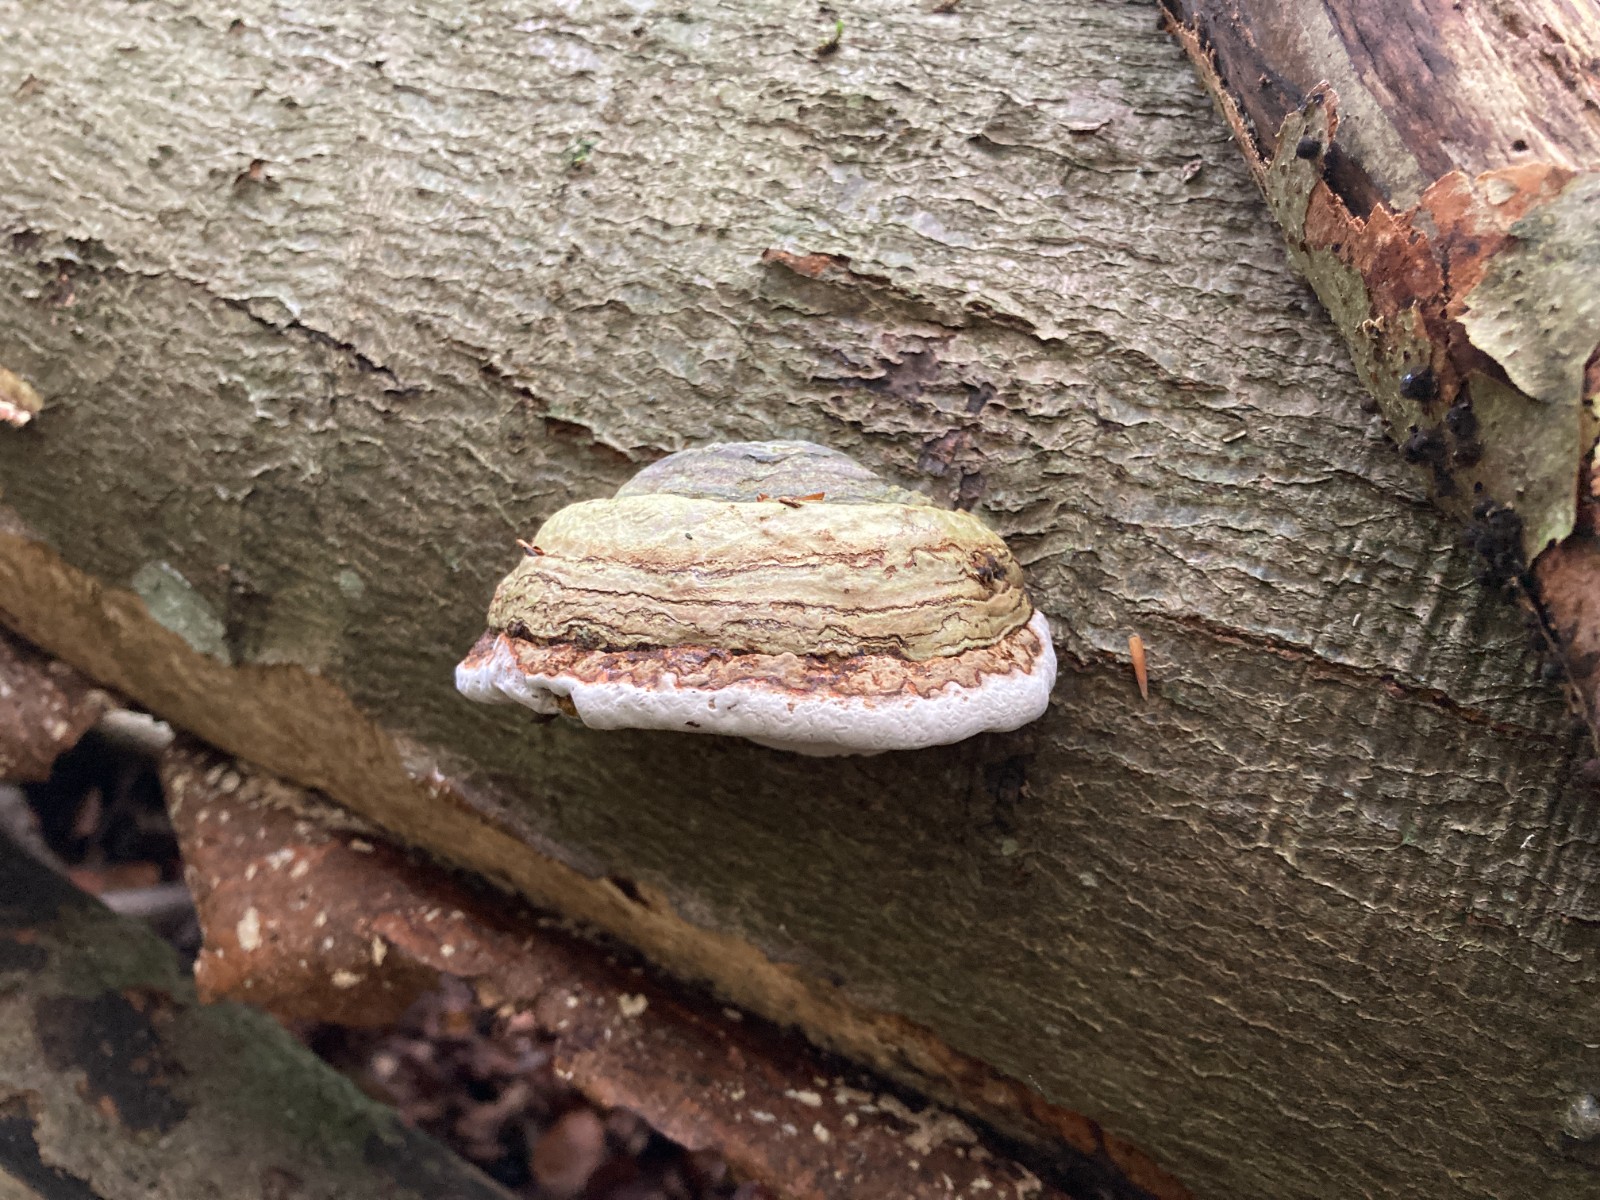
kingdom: Fungi
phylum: Basidiomycota
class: Agaricomycetes
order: Polyporales
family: Polyporaceae
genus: Fomes
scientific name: Fomes fomentarius
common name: tøndersvamp
